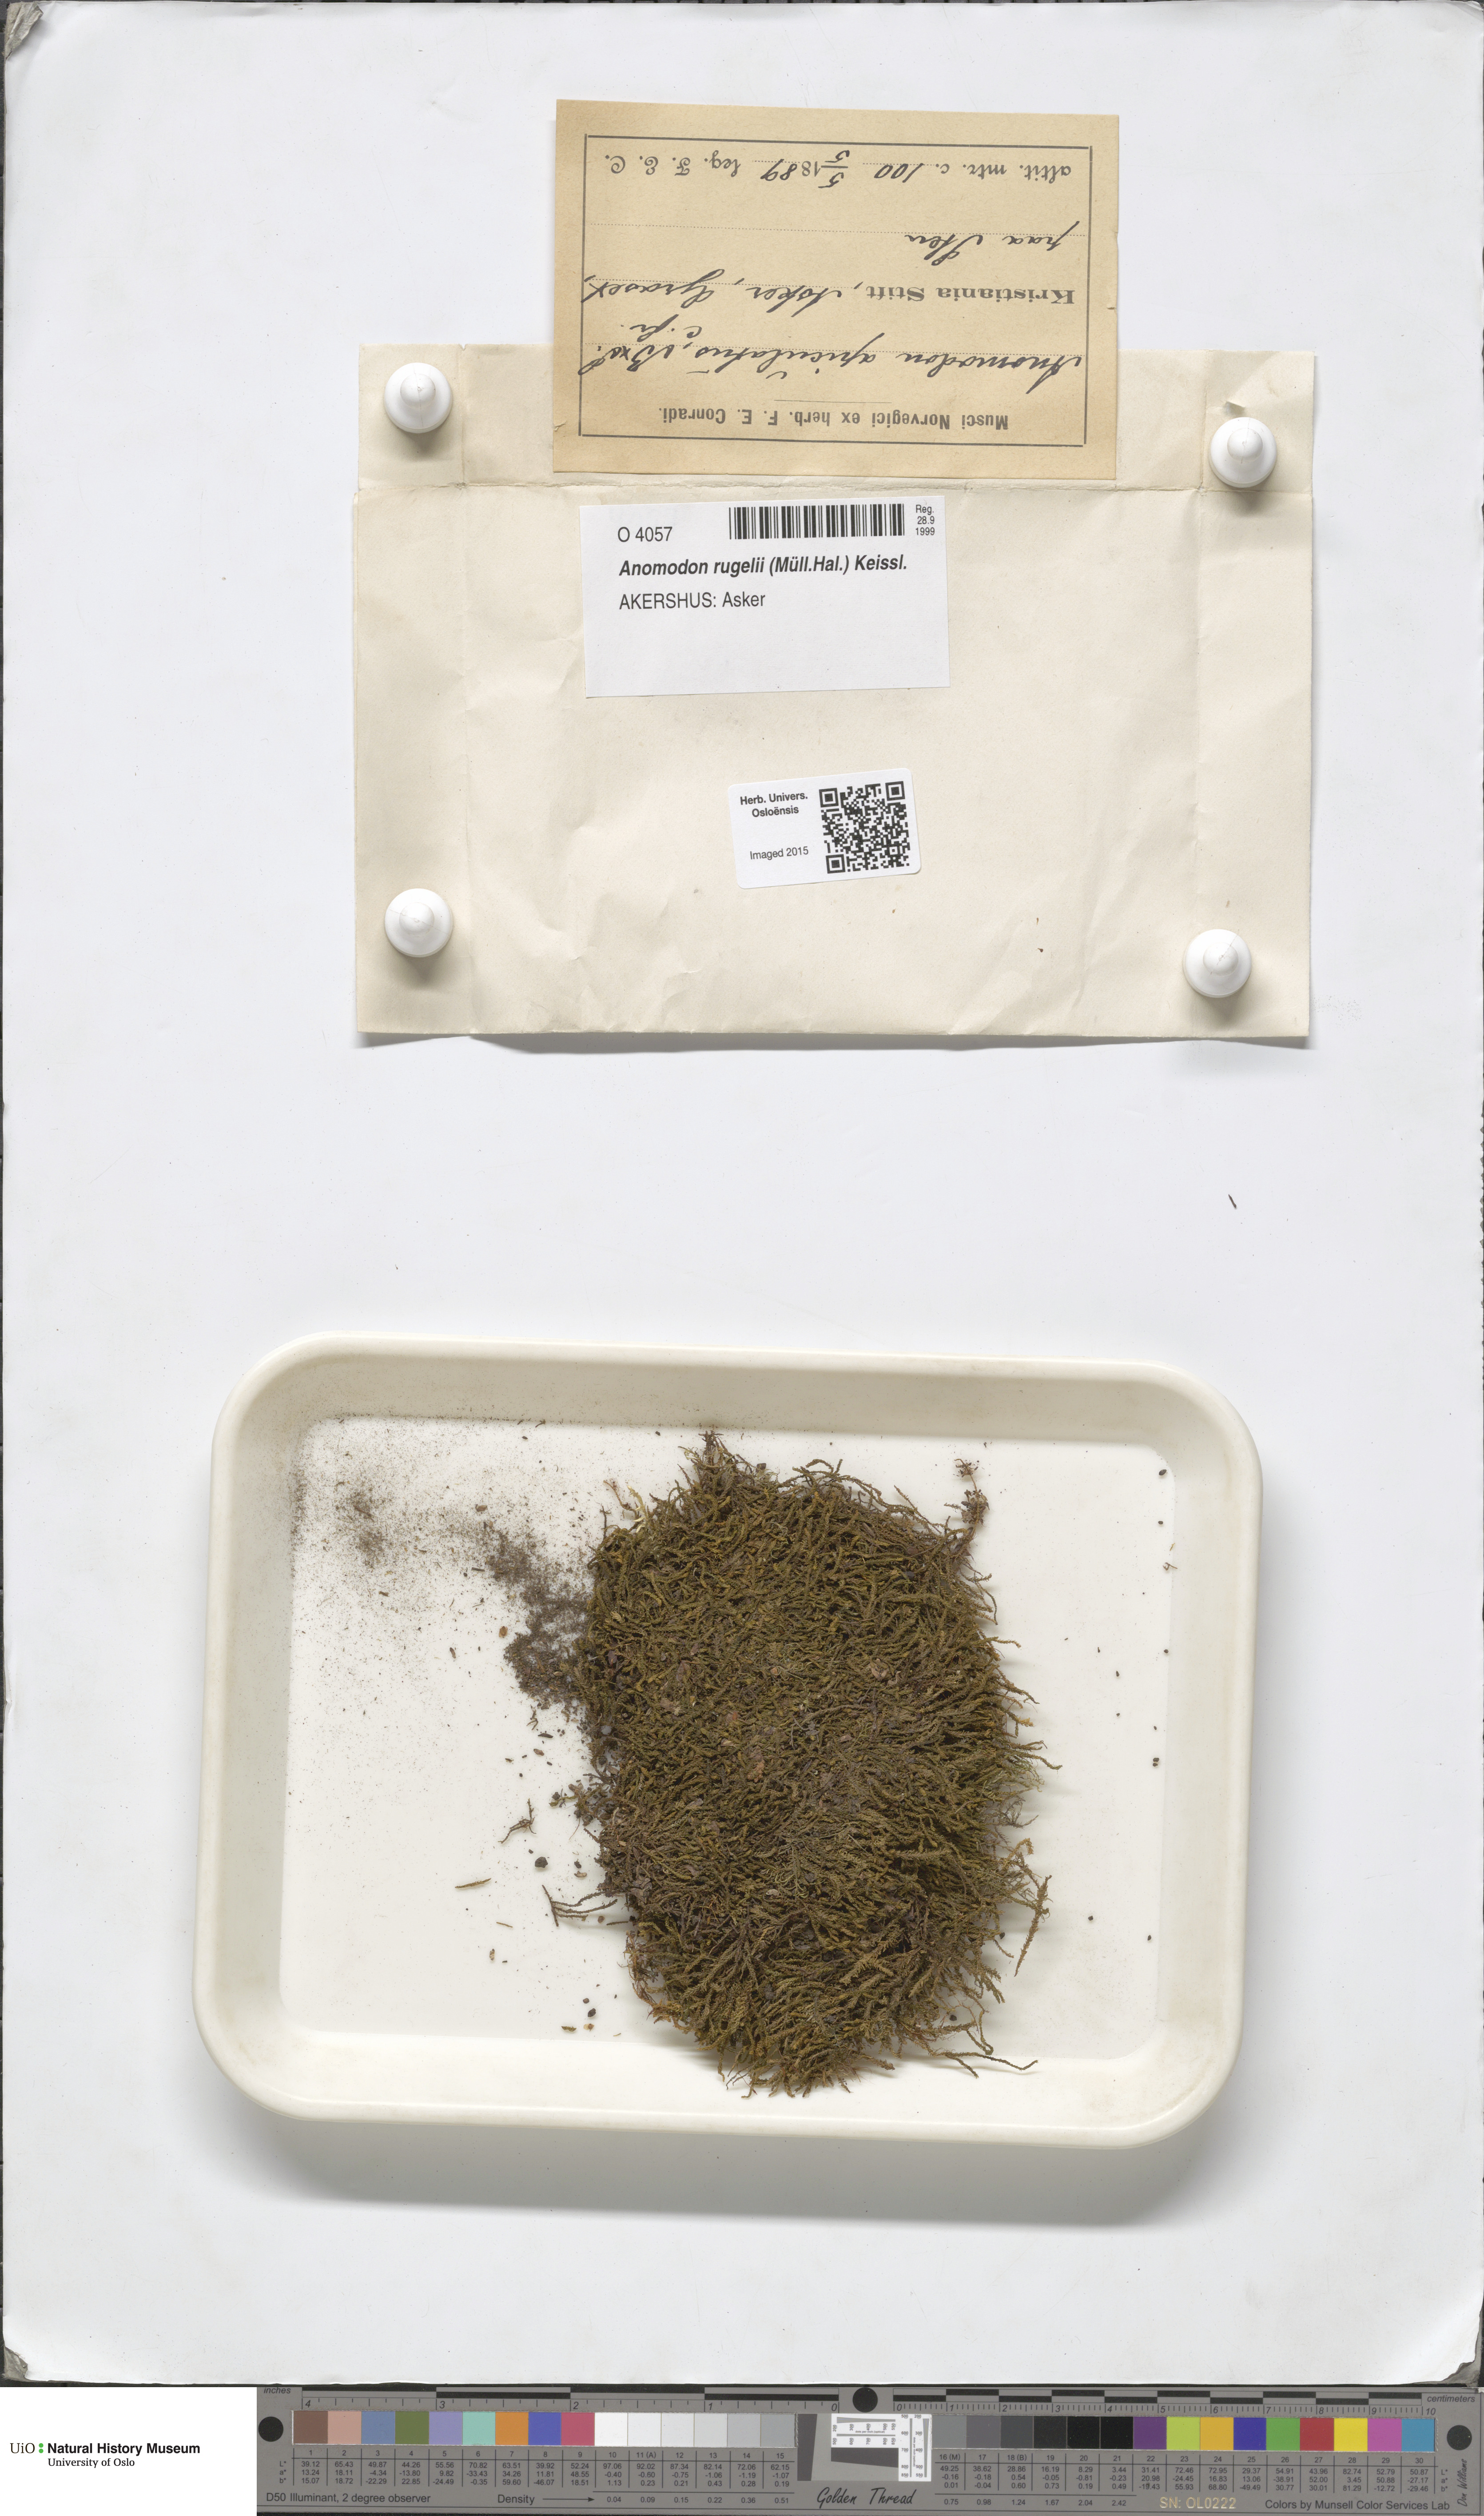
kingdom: Plantae
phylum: Bryophyta
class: Bryopsida
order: Hypnales
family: Anomodontaceae
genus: Anomodontopsis
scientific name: Anomodontopsis rugelii
